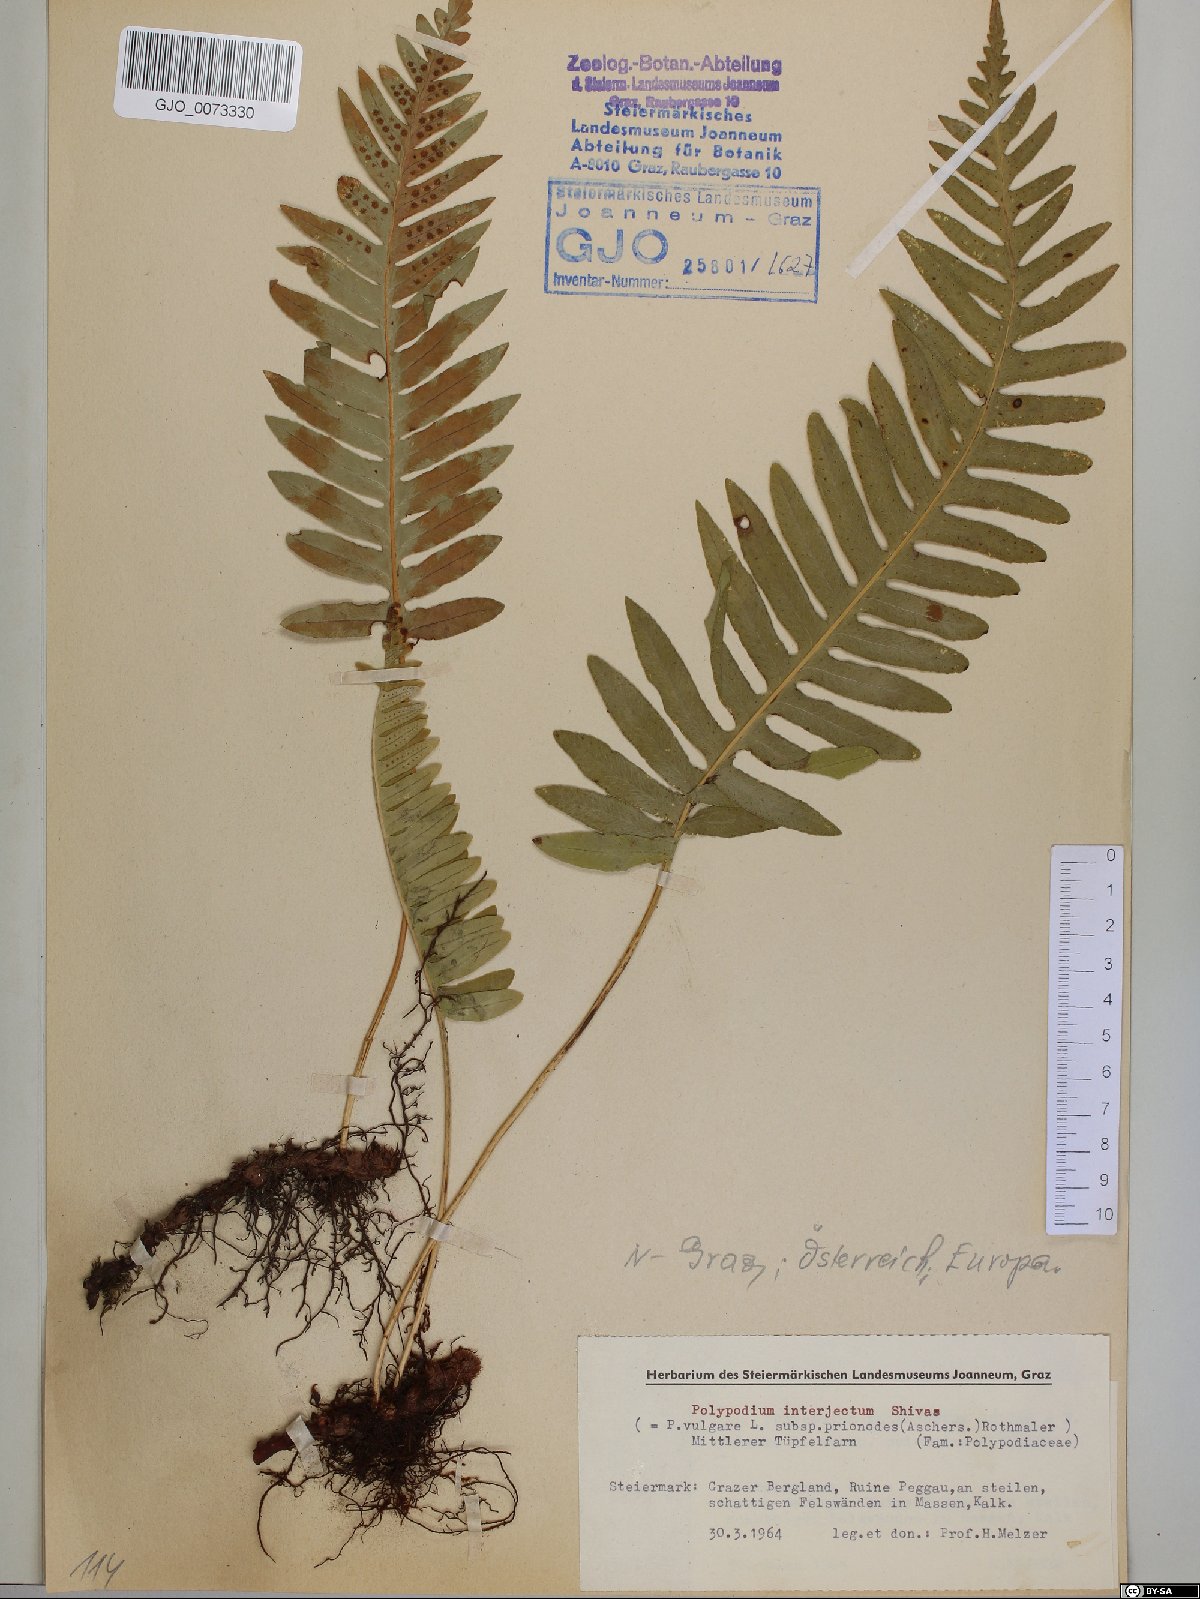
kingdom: Plantae
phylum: Tracheophyta
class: Polypodiopsida
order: Polypodiales
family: Polypodiaceae
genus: Polypodium
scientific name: Polypodium interjectum
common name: Intermediate polypody
